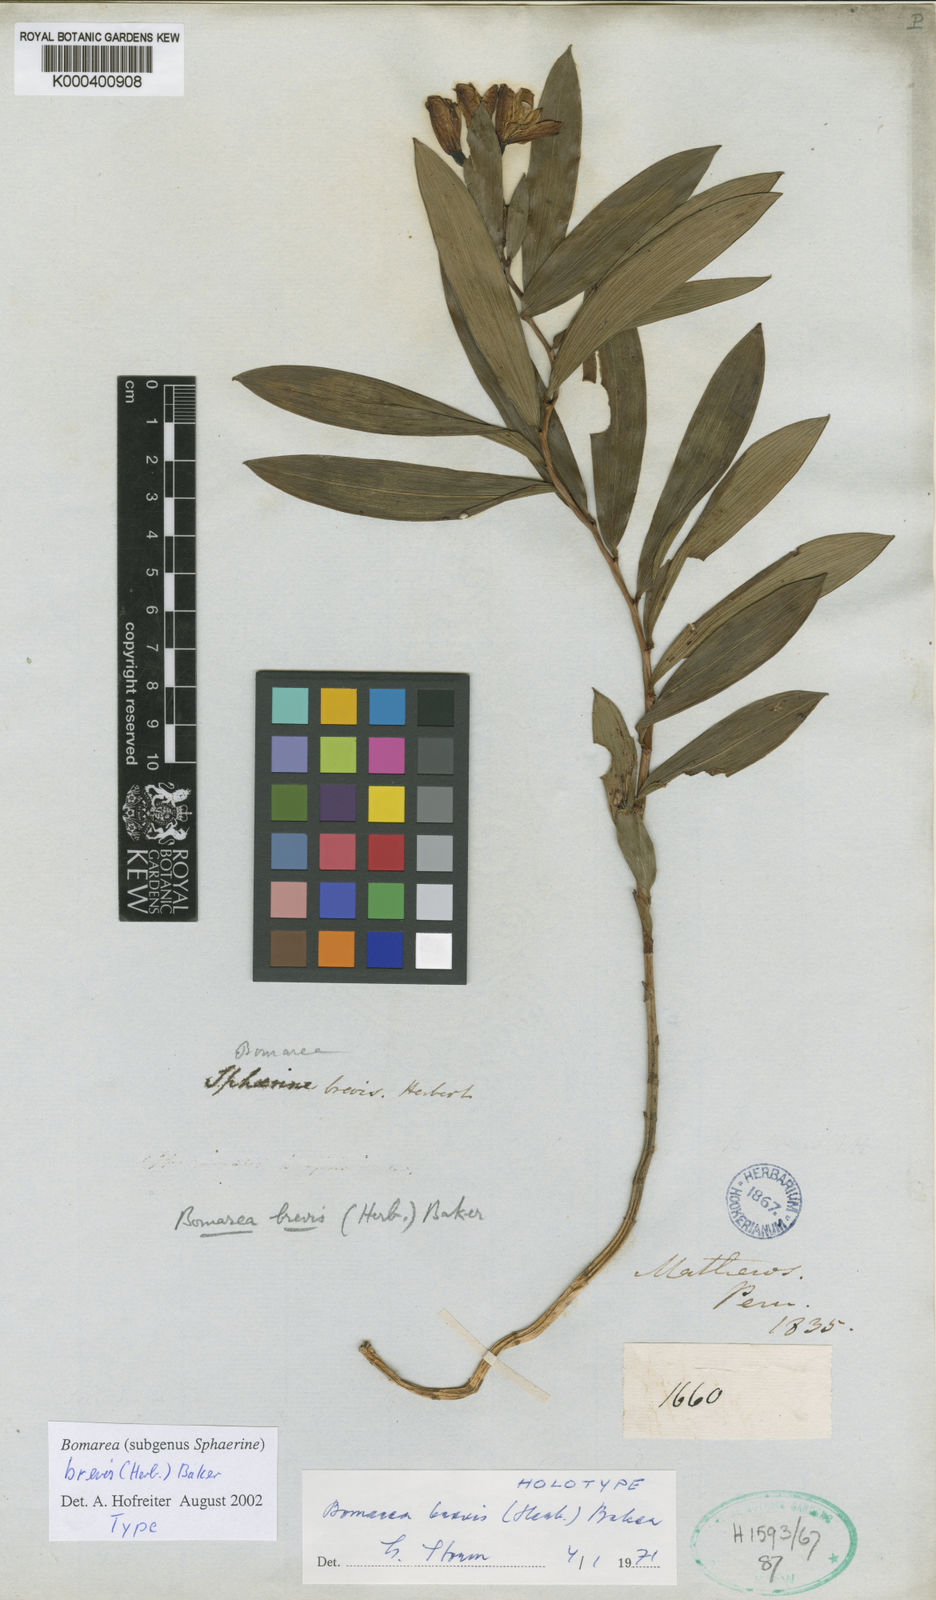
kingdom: Plantae
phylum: Tracheophyta
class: Liliopsida
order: Liliales
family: Alstroemeriaceae
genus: Bomarea
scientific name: Bomarea brevis
